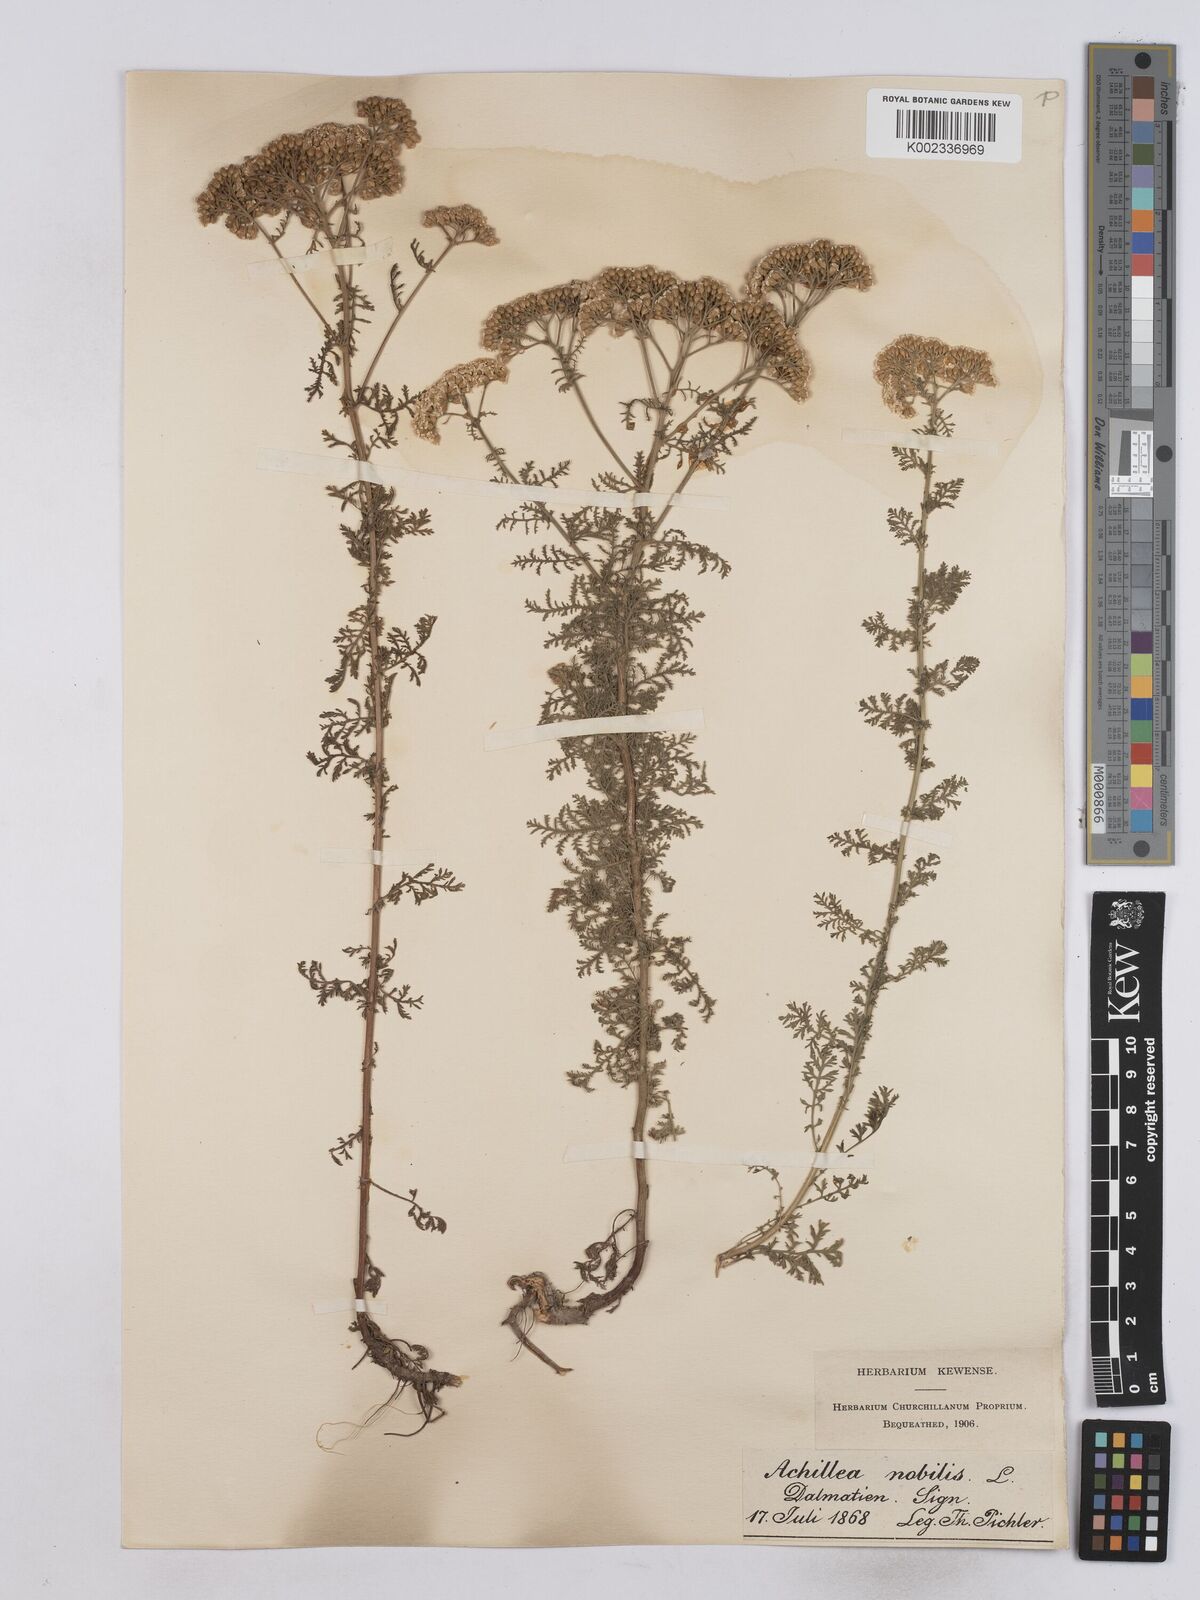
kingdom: Plantae
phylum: Tracheophyta
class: Magnoliopsida
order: Asterales
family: Asteraceae
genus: Achillea
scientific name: Achillea nobilis
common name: Noble yarrow
